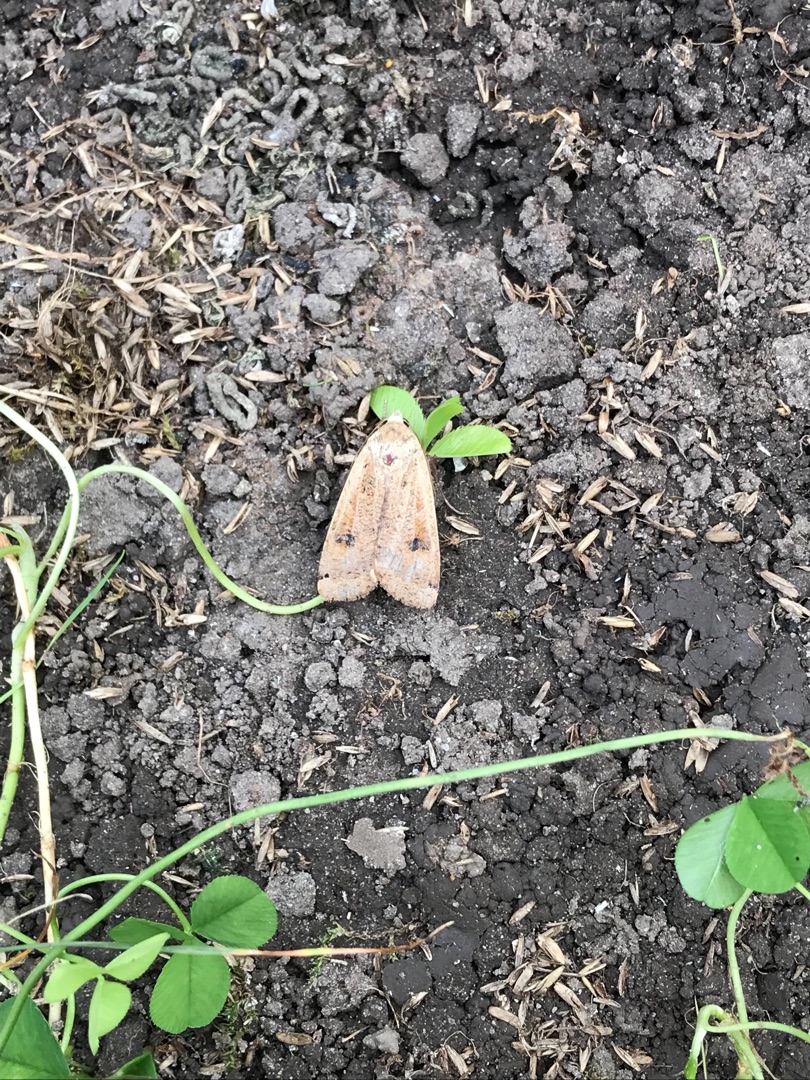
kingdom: Animalia
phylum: Arthropoda
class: Insecta
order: Lepidoptera
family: Noctuidae
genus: Noctua
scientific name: Noctua pronuba
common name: Stor smutugle
